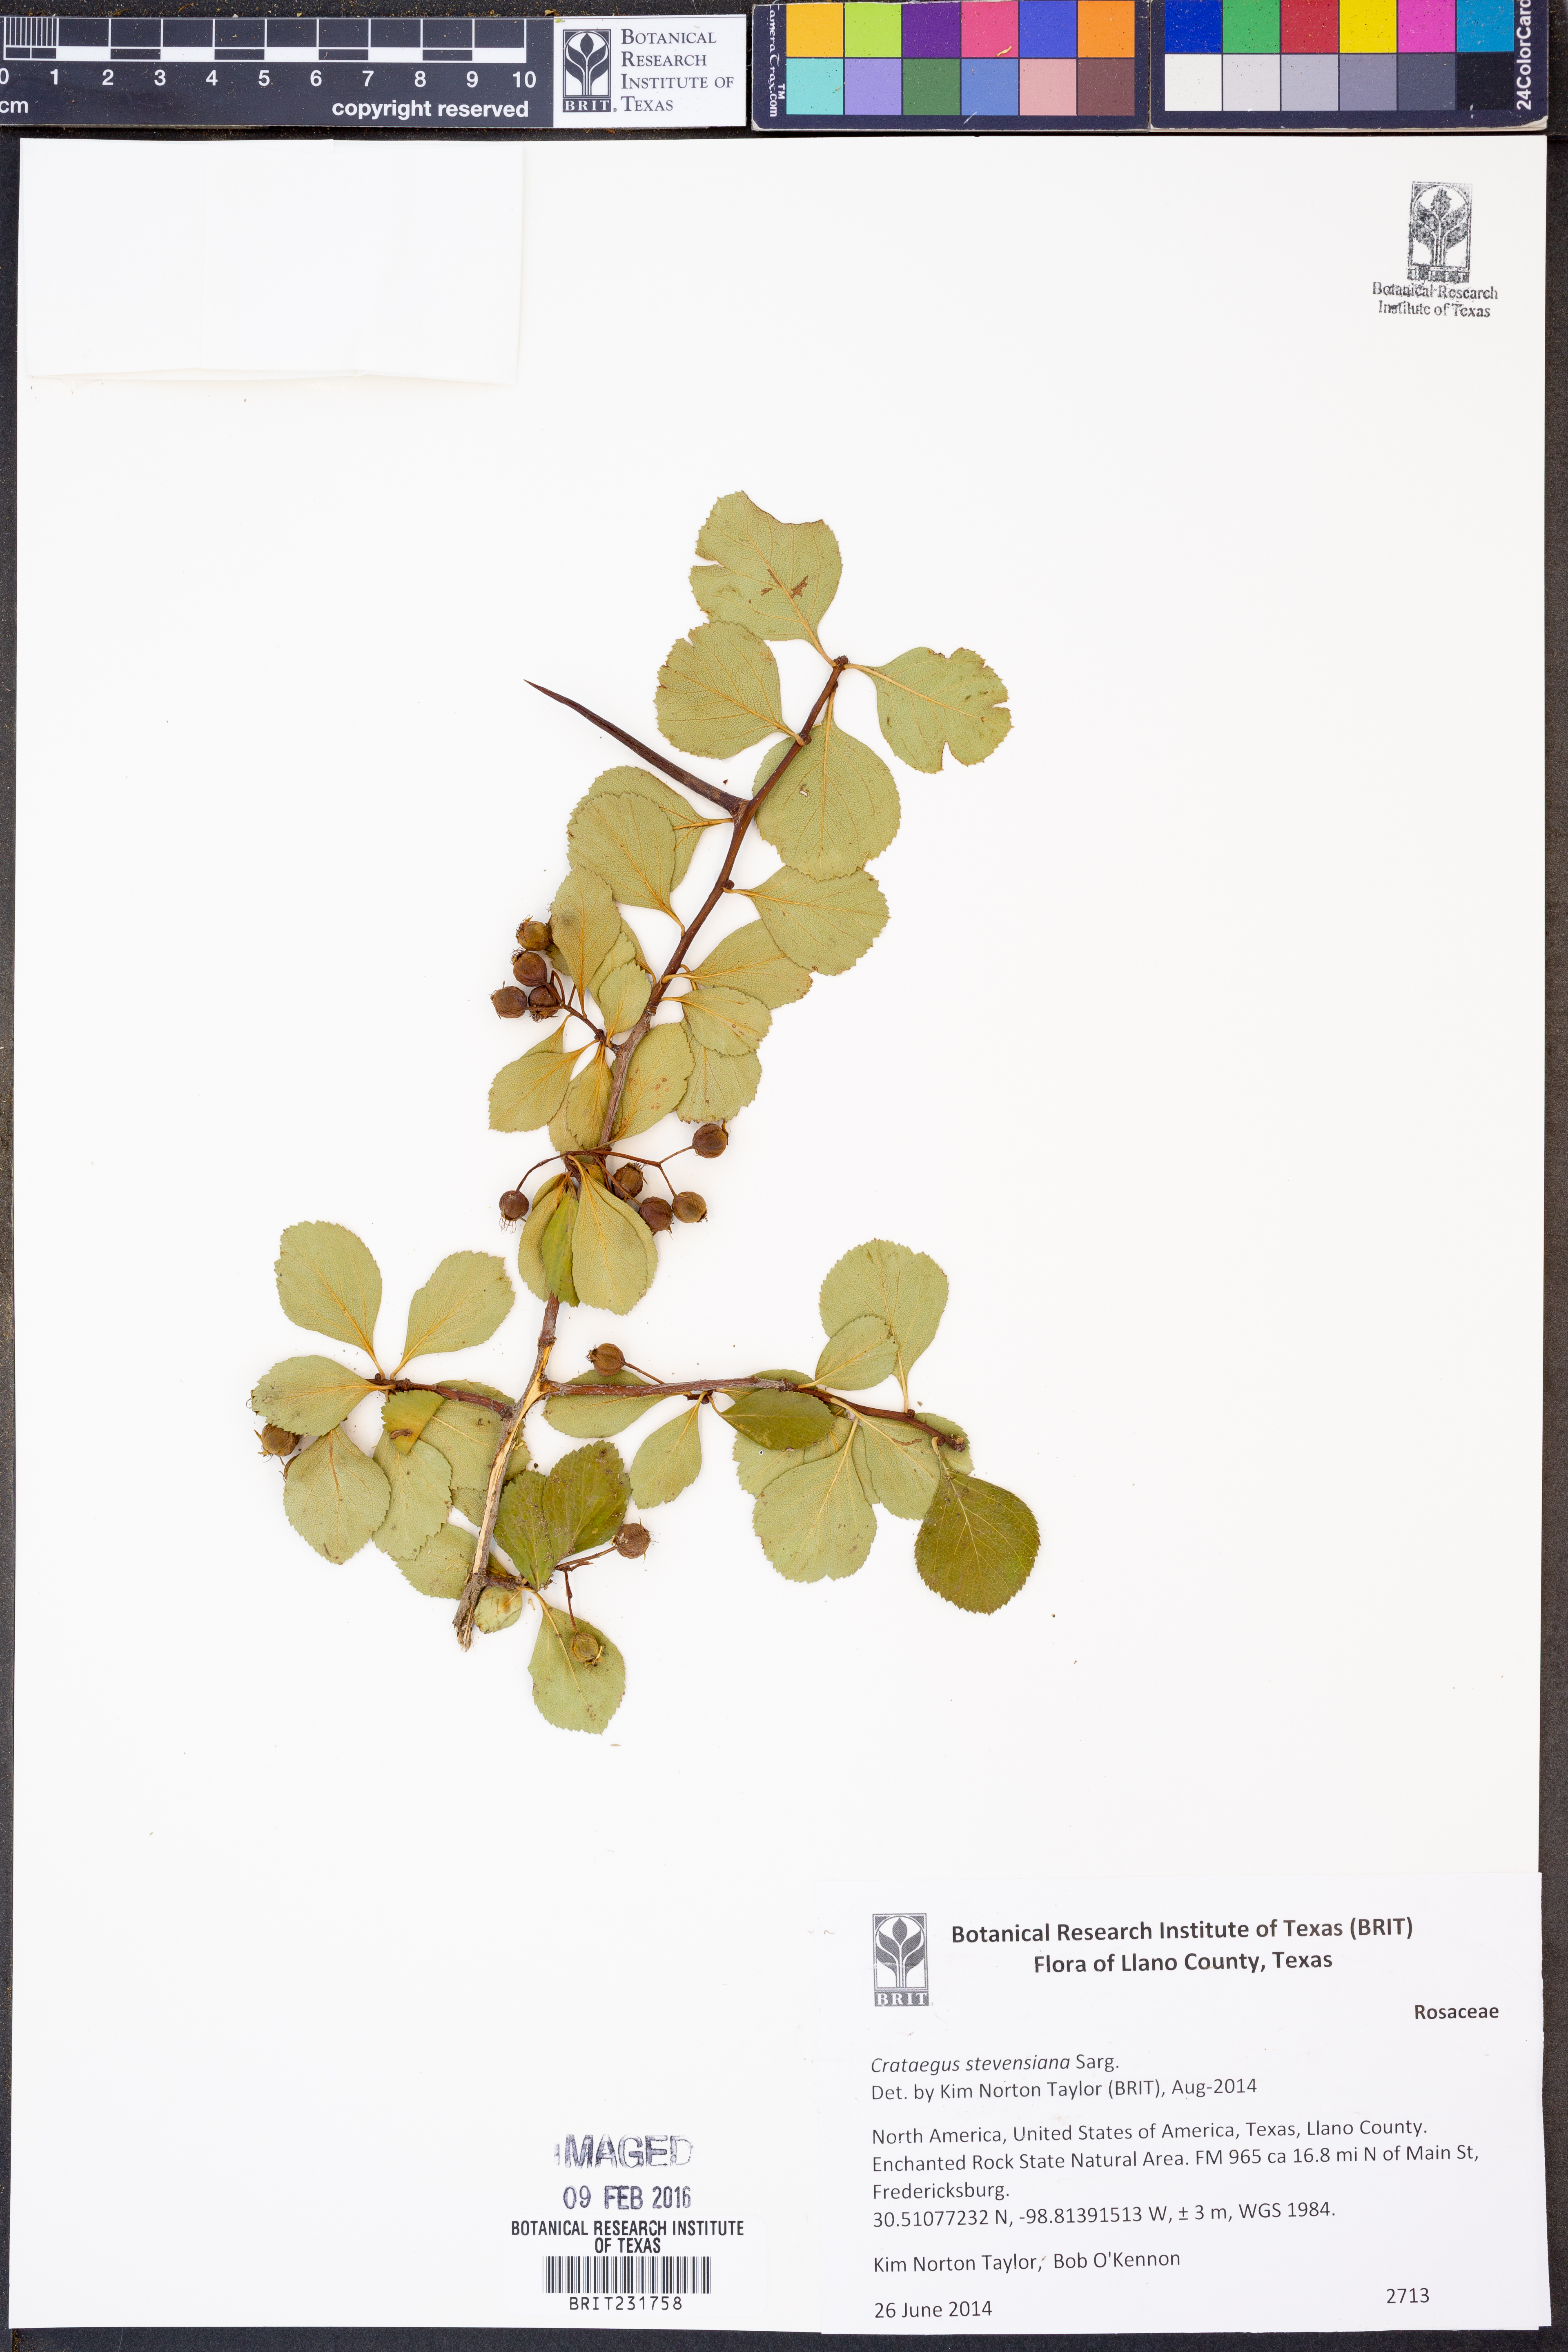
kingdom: Plantae
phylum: Tracheophyta
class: Magnoliopsida
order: Rosales
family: Rosaceae
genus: Crataegus
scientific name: Crataegus reverchonii
